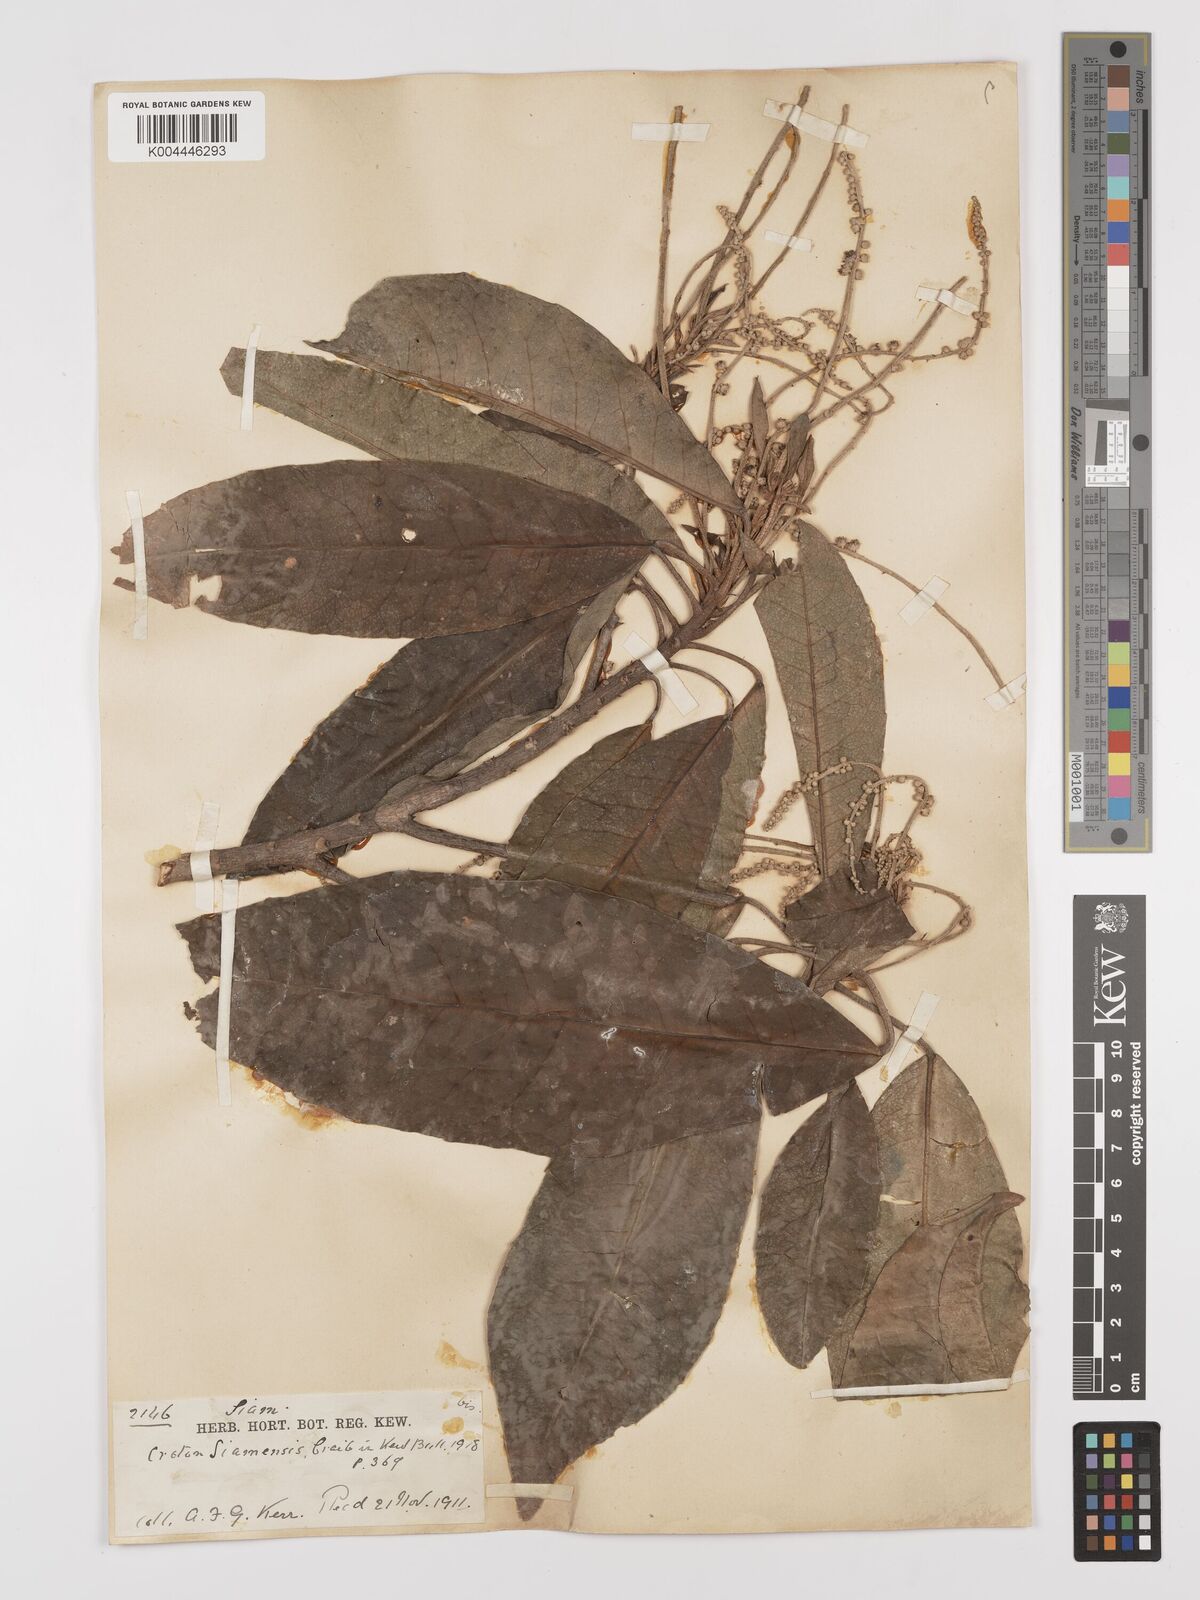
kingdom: Plantae
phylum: Tracheophyta
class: Magnoliopsida
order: Malpighiales
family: Euphorbiaceae
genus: Croton
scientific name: Croton robustus
